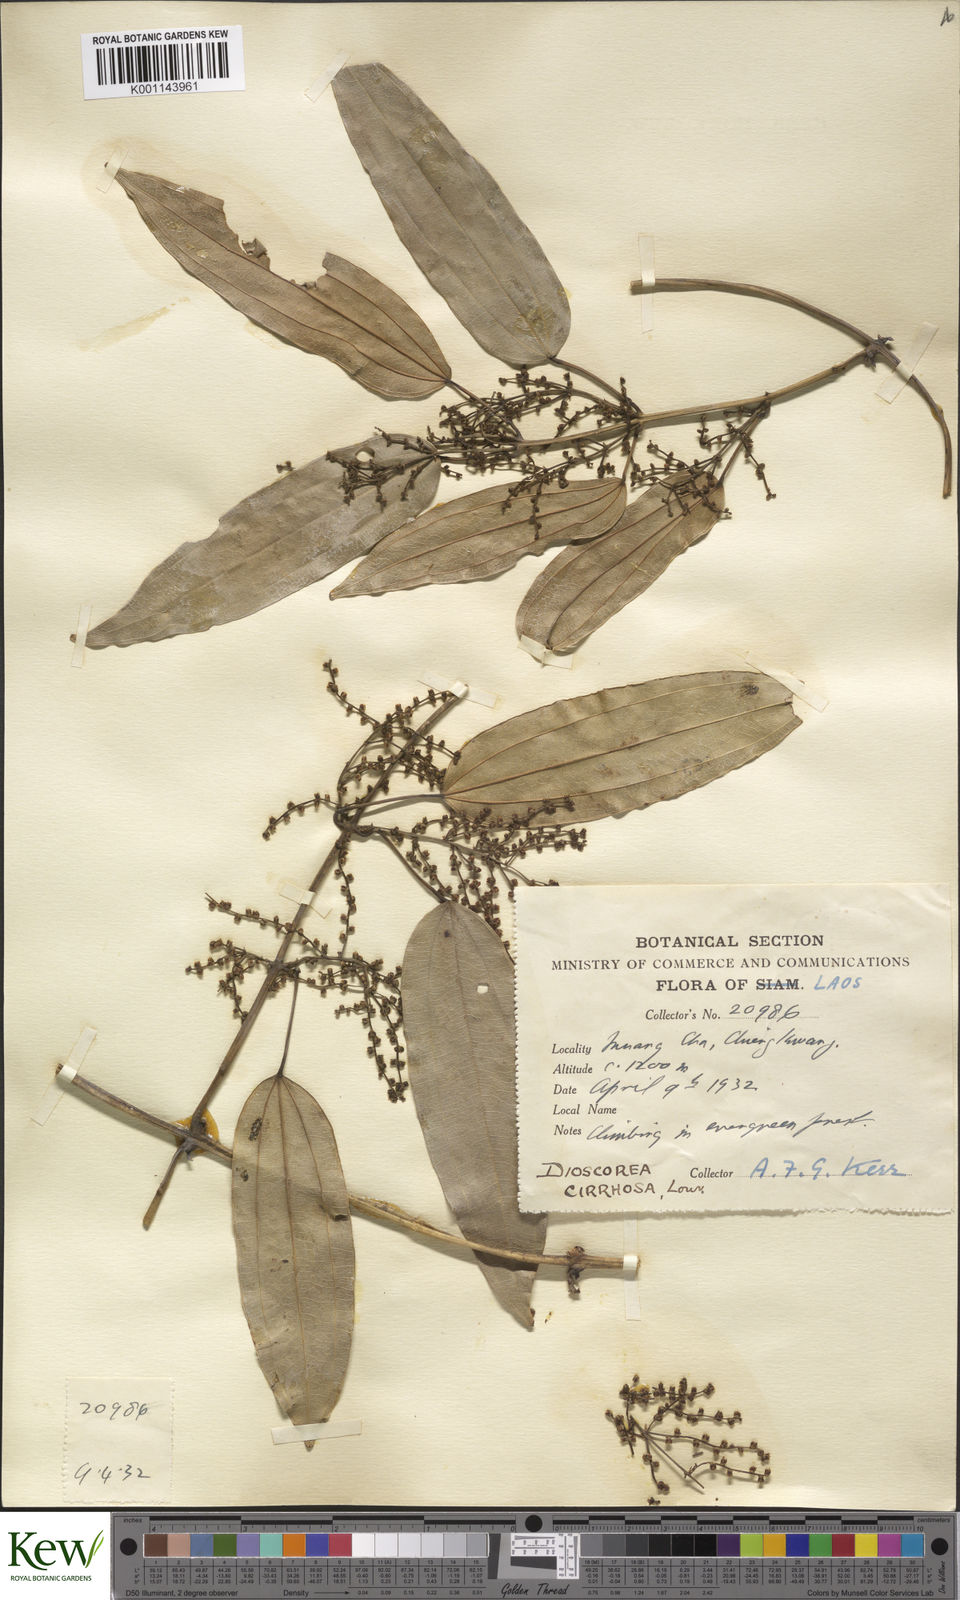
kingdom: Plantae
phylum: Tracheophyta
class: Liliopsida
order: Dioscoreales
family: Dioscoreaceae
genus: Dioscorea
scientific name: Dioscorea cirrhosa
